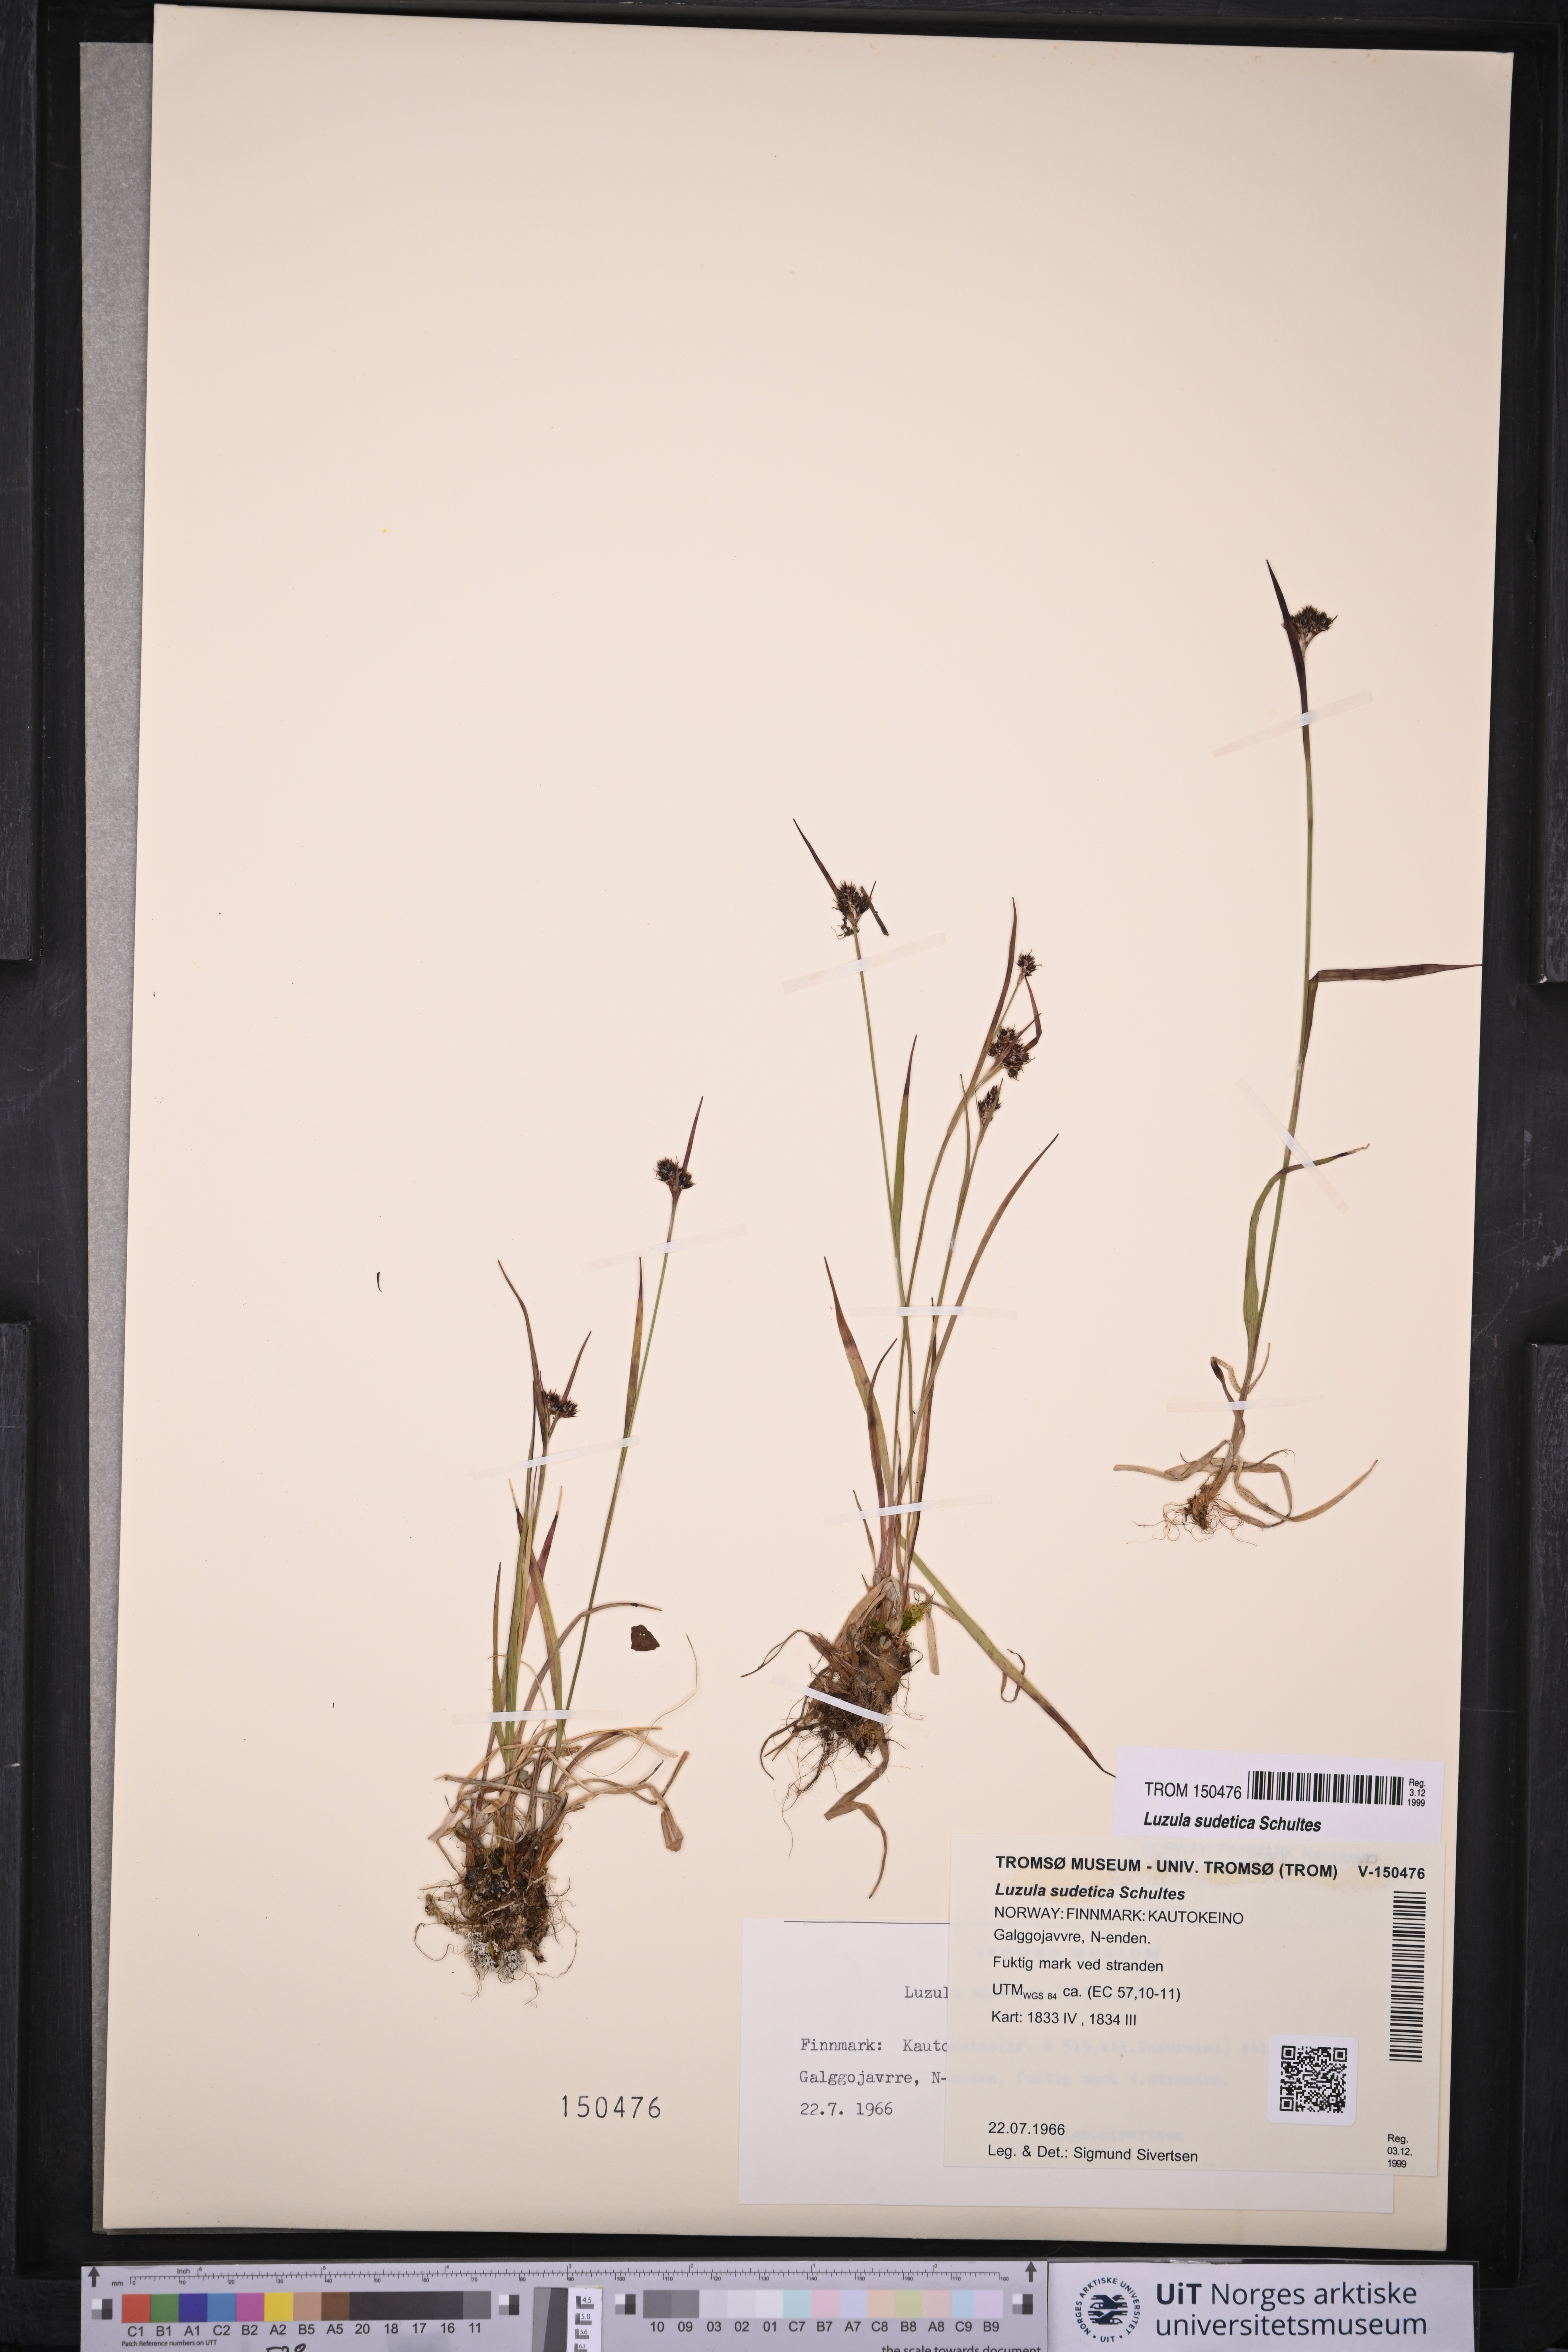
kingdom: Plantae
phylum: Tracheophyta
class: Liliopsida
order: Poales
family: Juncaceae
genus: Luzula
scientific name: Luzula sudetica
